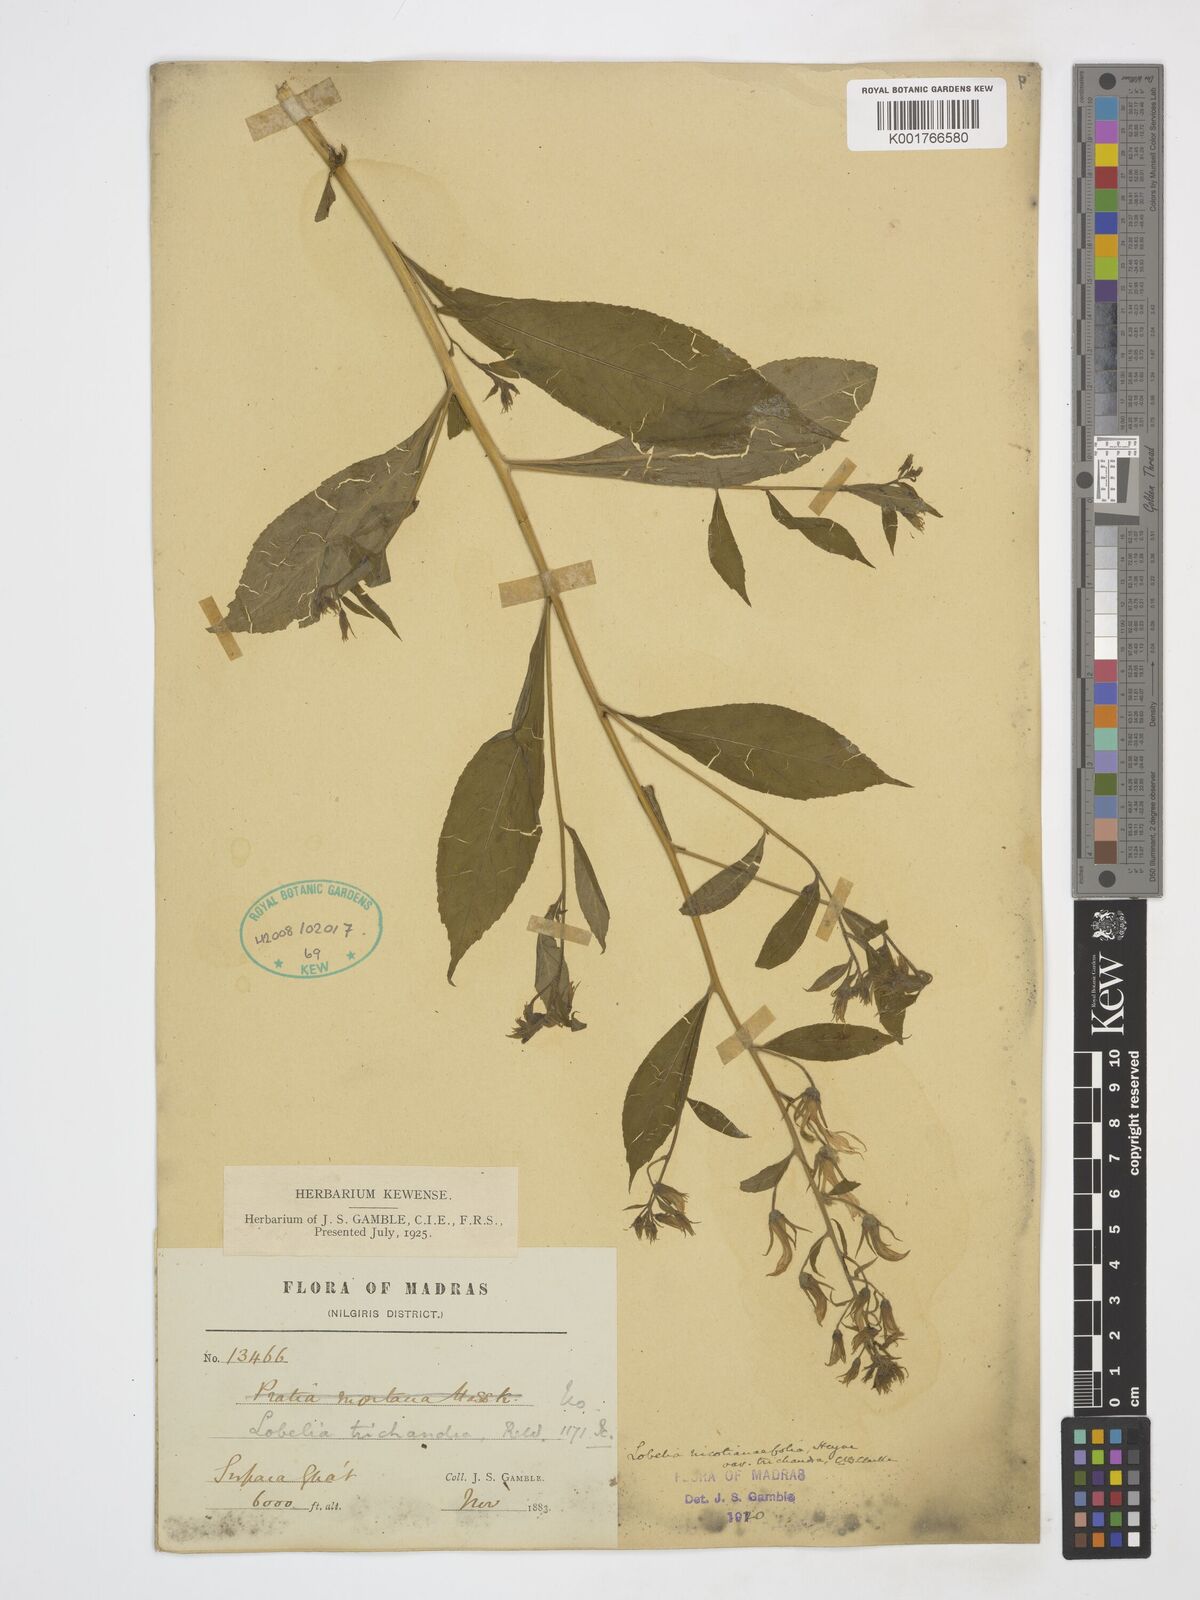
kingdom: Plantae
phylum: Tracheophyta
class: Magnoliopsida
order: Asterales
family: Campanulaceae
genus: Lobelia
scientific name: Lobelia nicotianifolia
